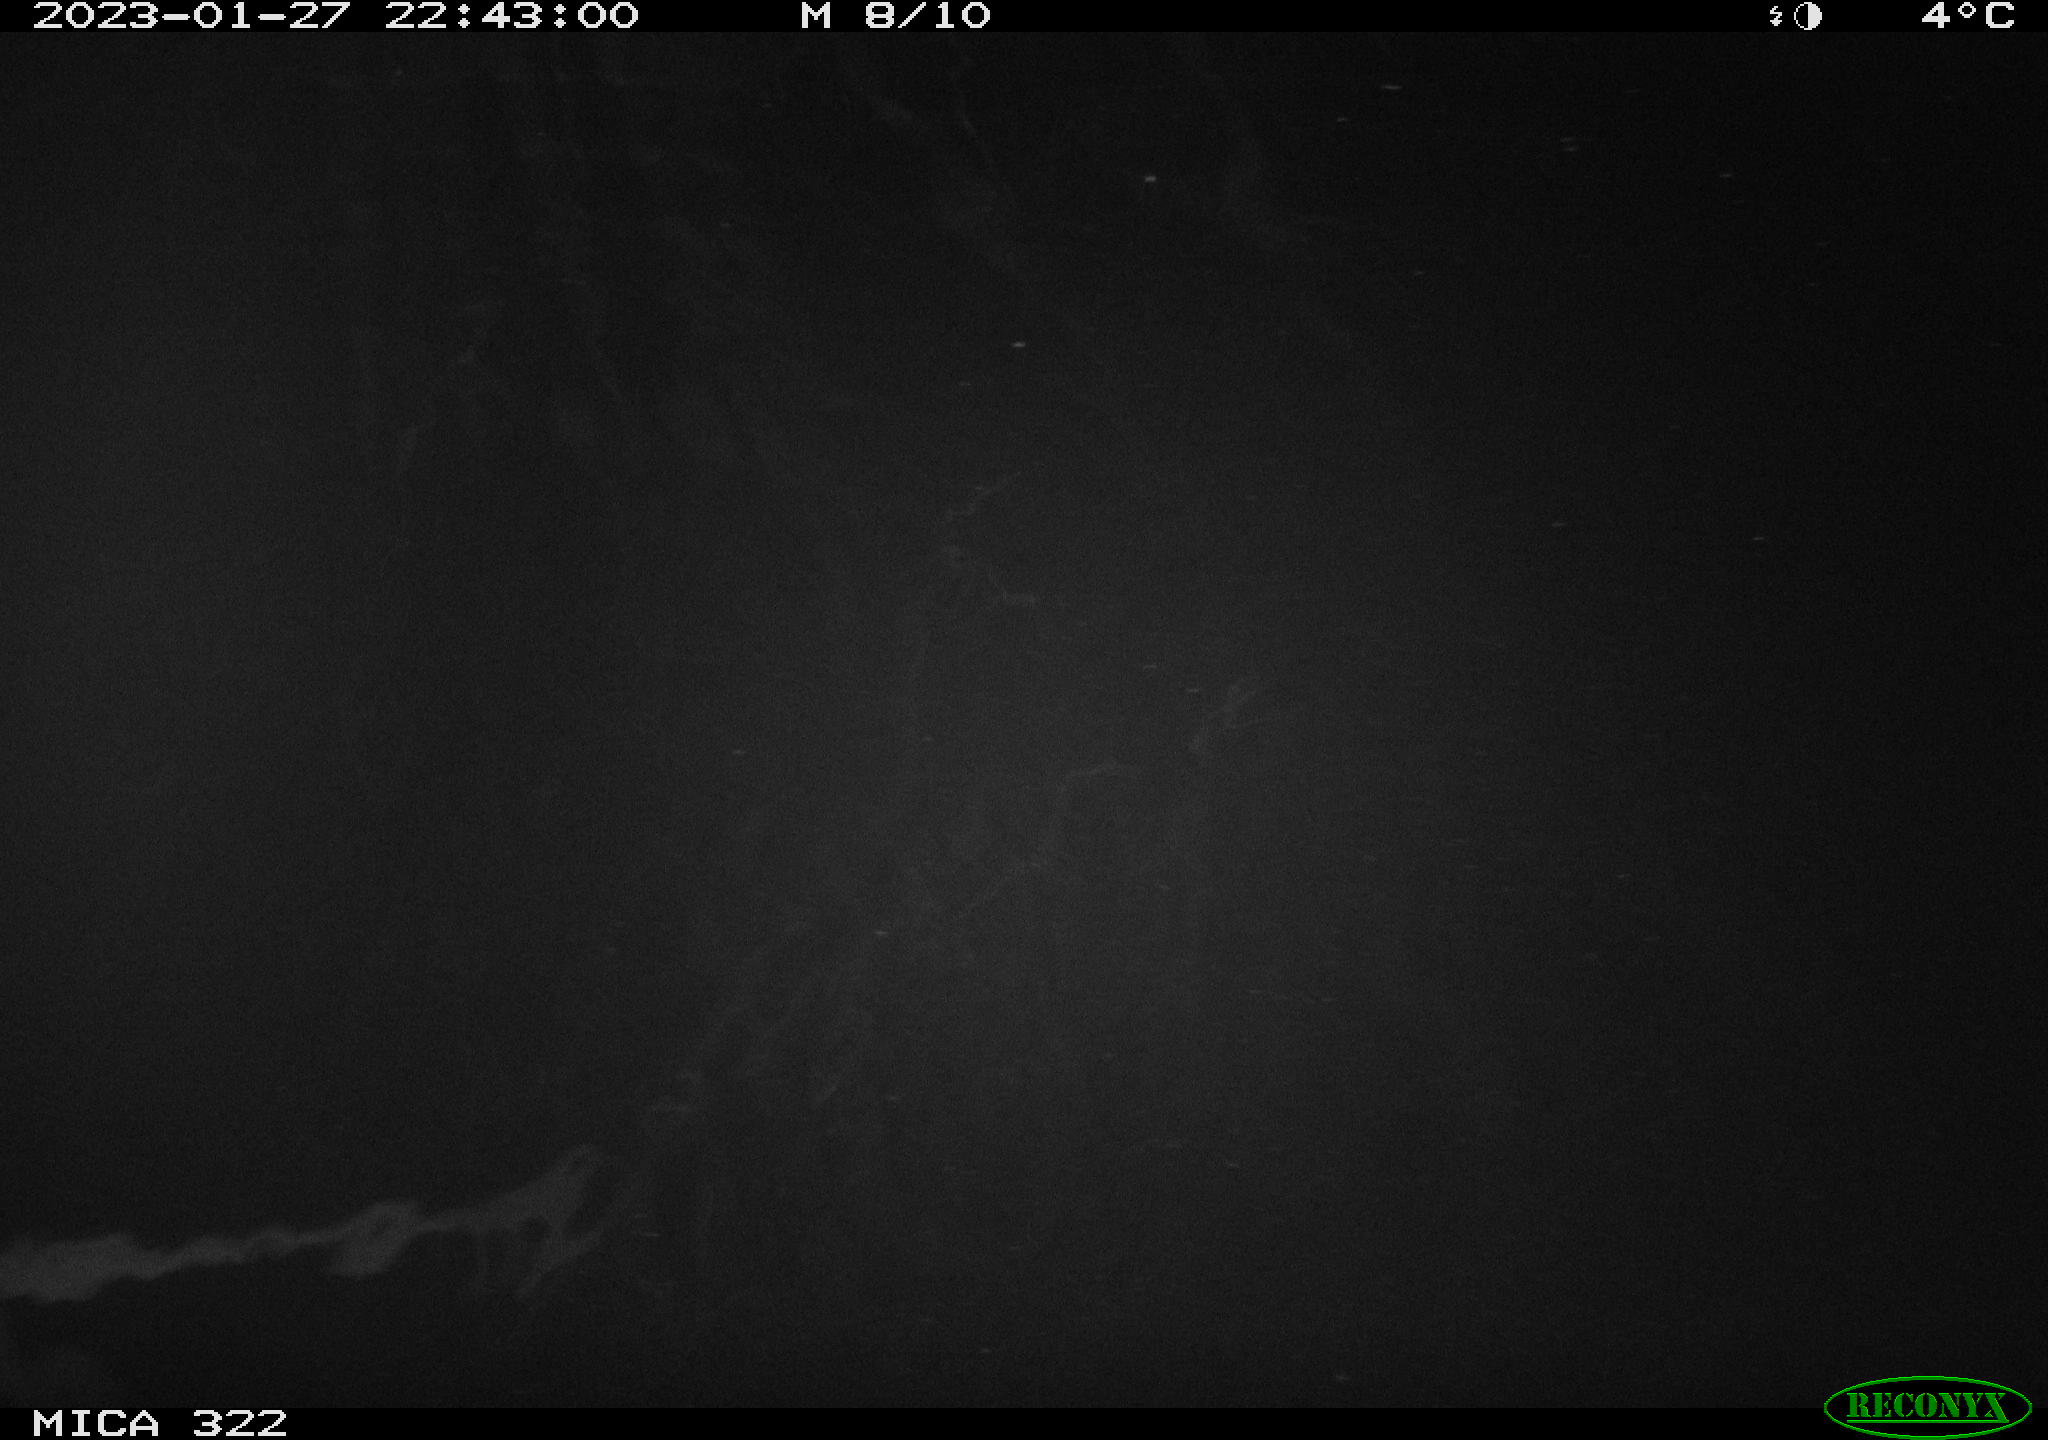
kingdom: Animalia
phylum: Chordata
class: Aves
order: Anseriformes
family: Anatidae
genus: Anas
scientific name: Anas
